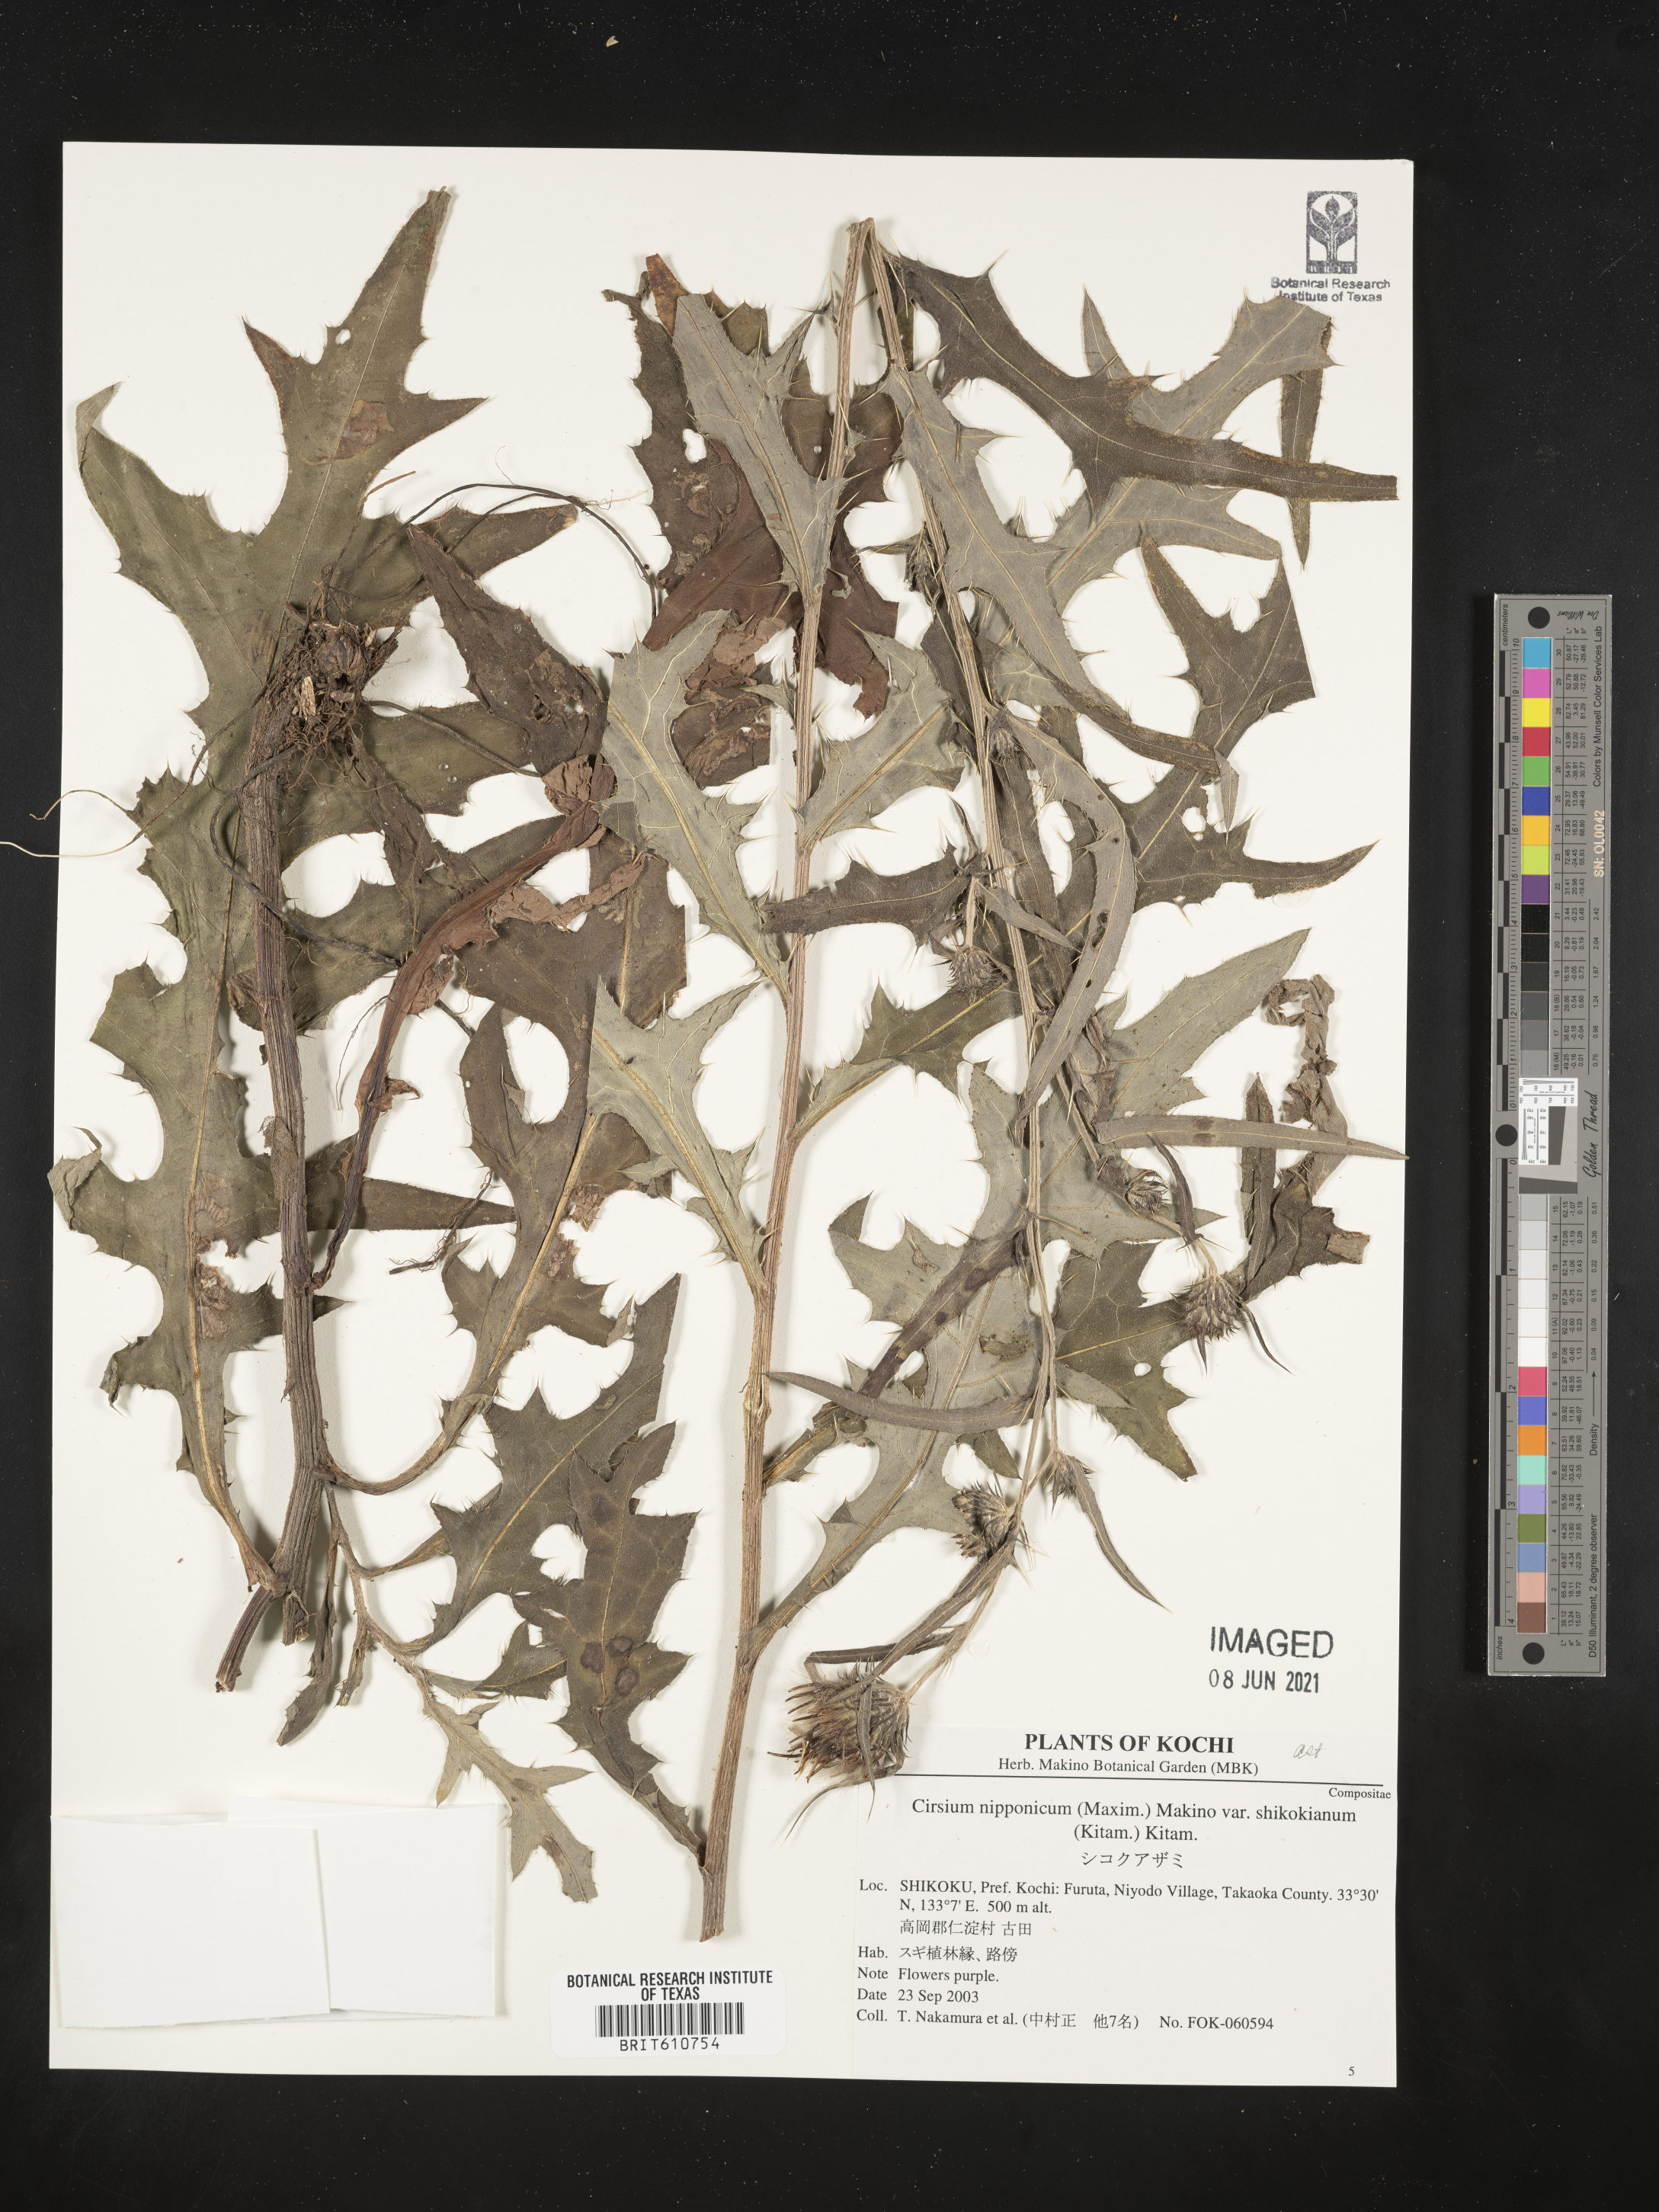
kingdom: Plantae
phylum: Tracheophyta
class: Magnoliopsida
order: Asterales
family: Asteraceae
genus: Cirsium
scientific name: Cirsium nipponicum
